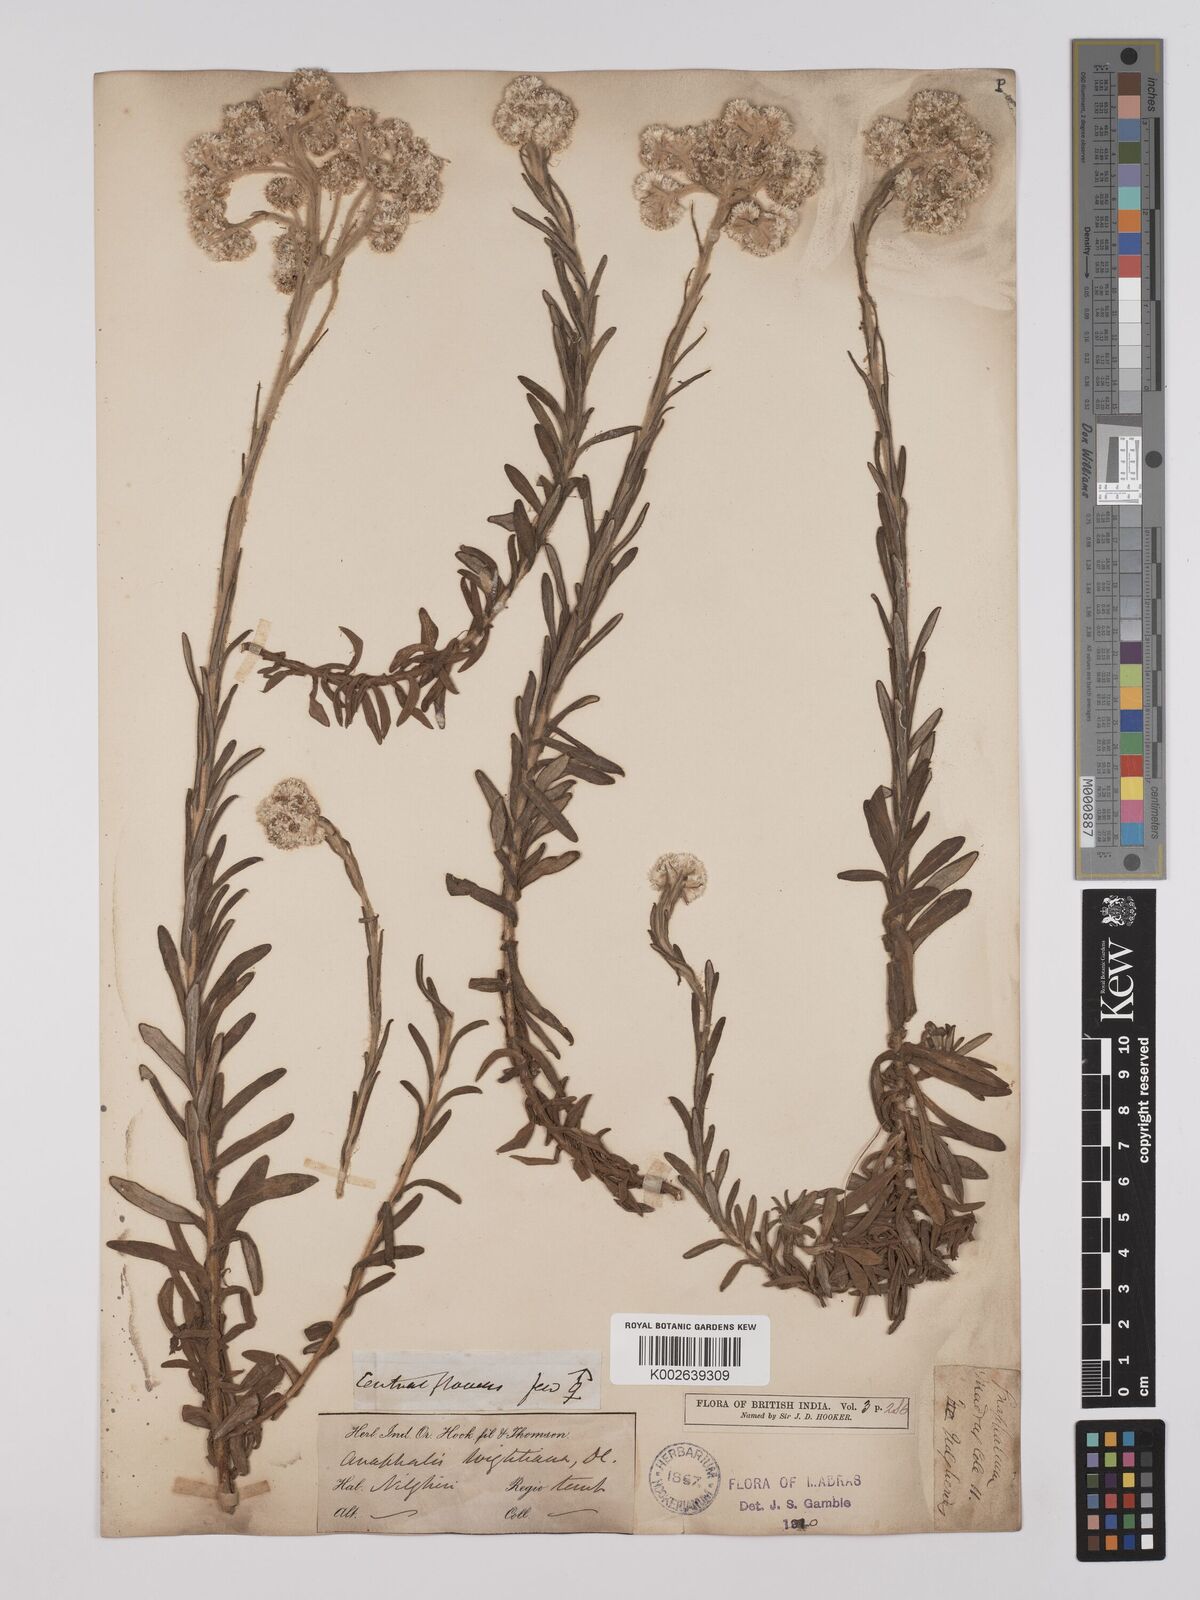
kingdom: Plantae
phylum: Tracheophyta
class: Magnoliopsida
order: Asterales
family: Asteraceae
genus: Anaphalis
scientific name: Anaphalis wightiana
